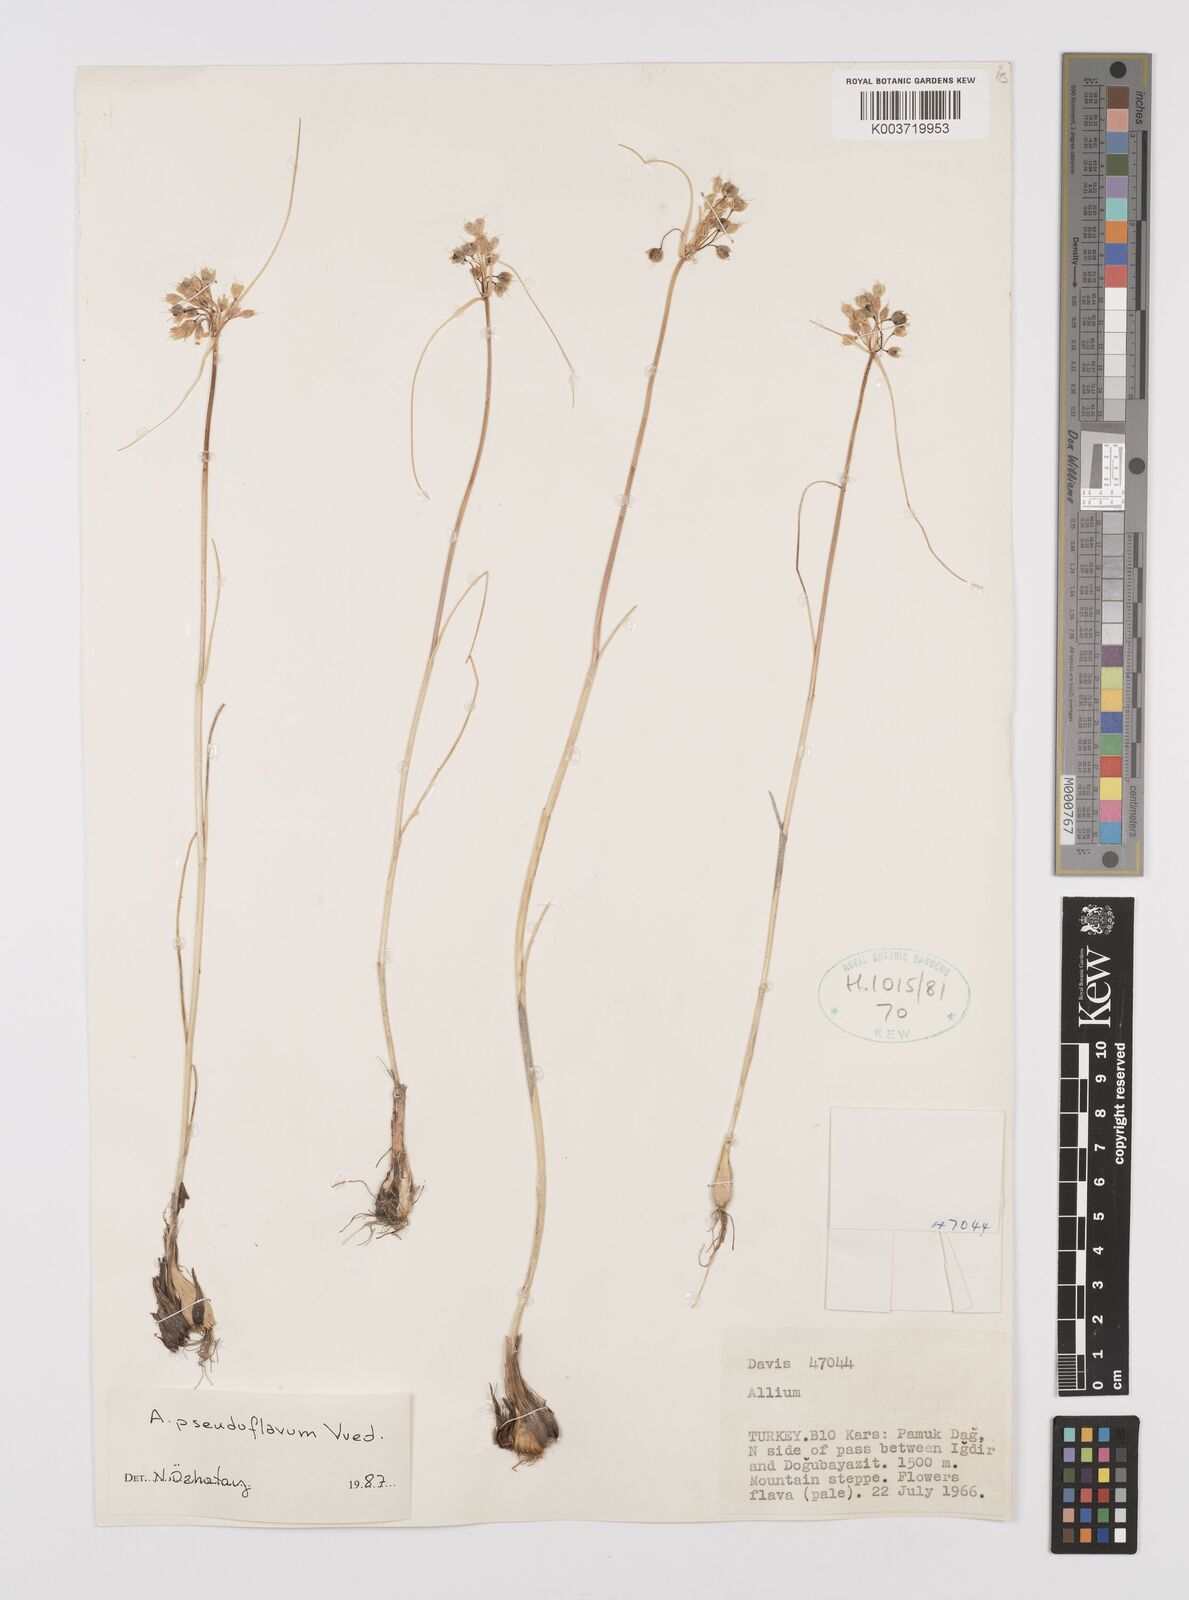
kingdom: Plantae
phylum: Tracheophyta
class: Liliopsida
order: Asparagales
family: Amaryllidaceae
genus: Allium
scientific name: Allium pseudoflavum
